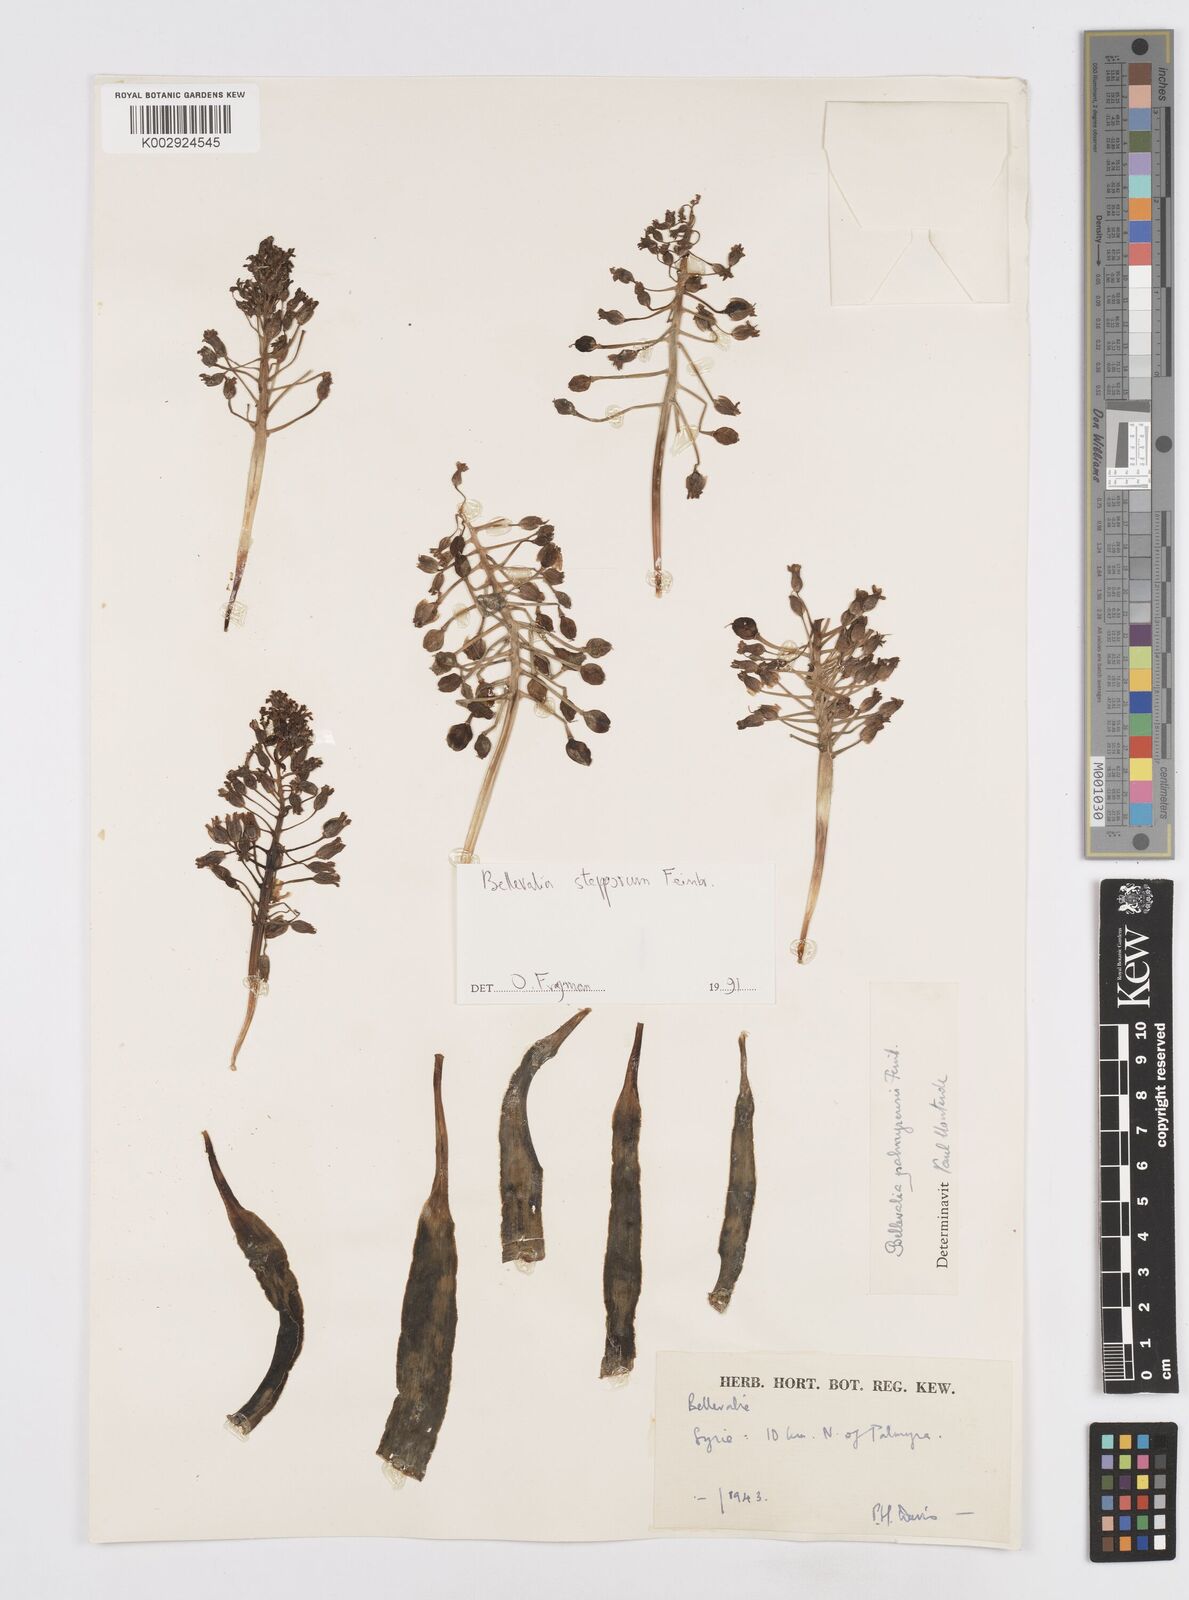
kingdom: Plantae
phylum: Tracheophyta
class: Liliopsida
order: Asparagales
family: Asparagaceae
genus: Bellevalia
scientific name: Bellevalia stepporum
